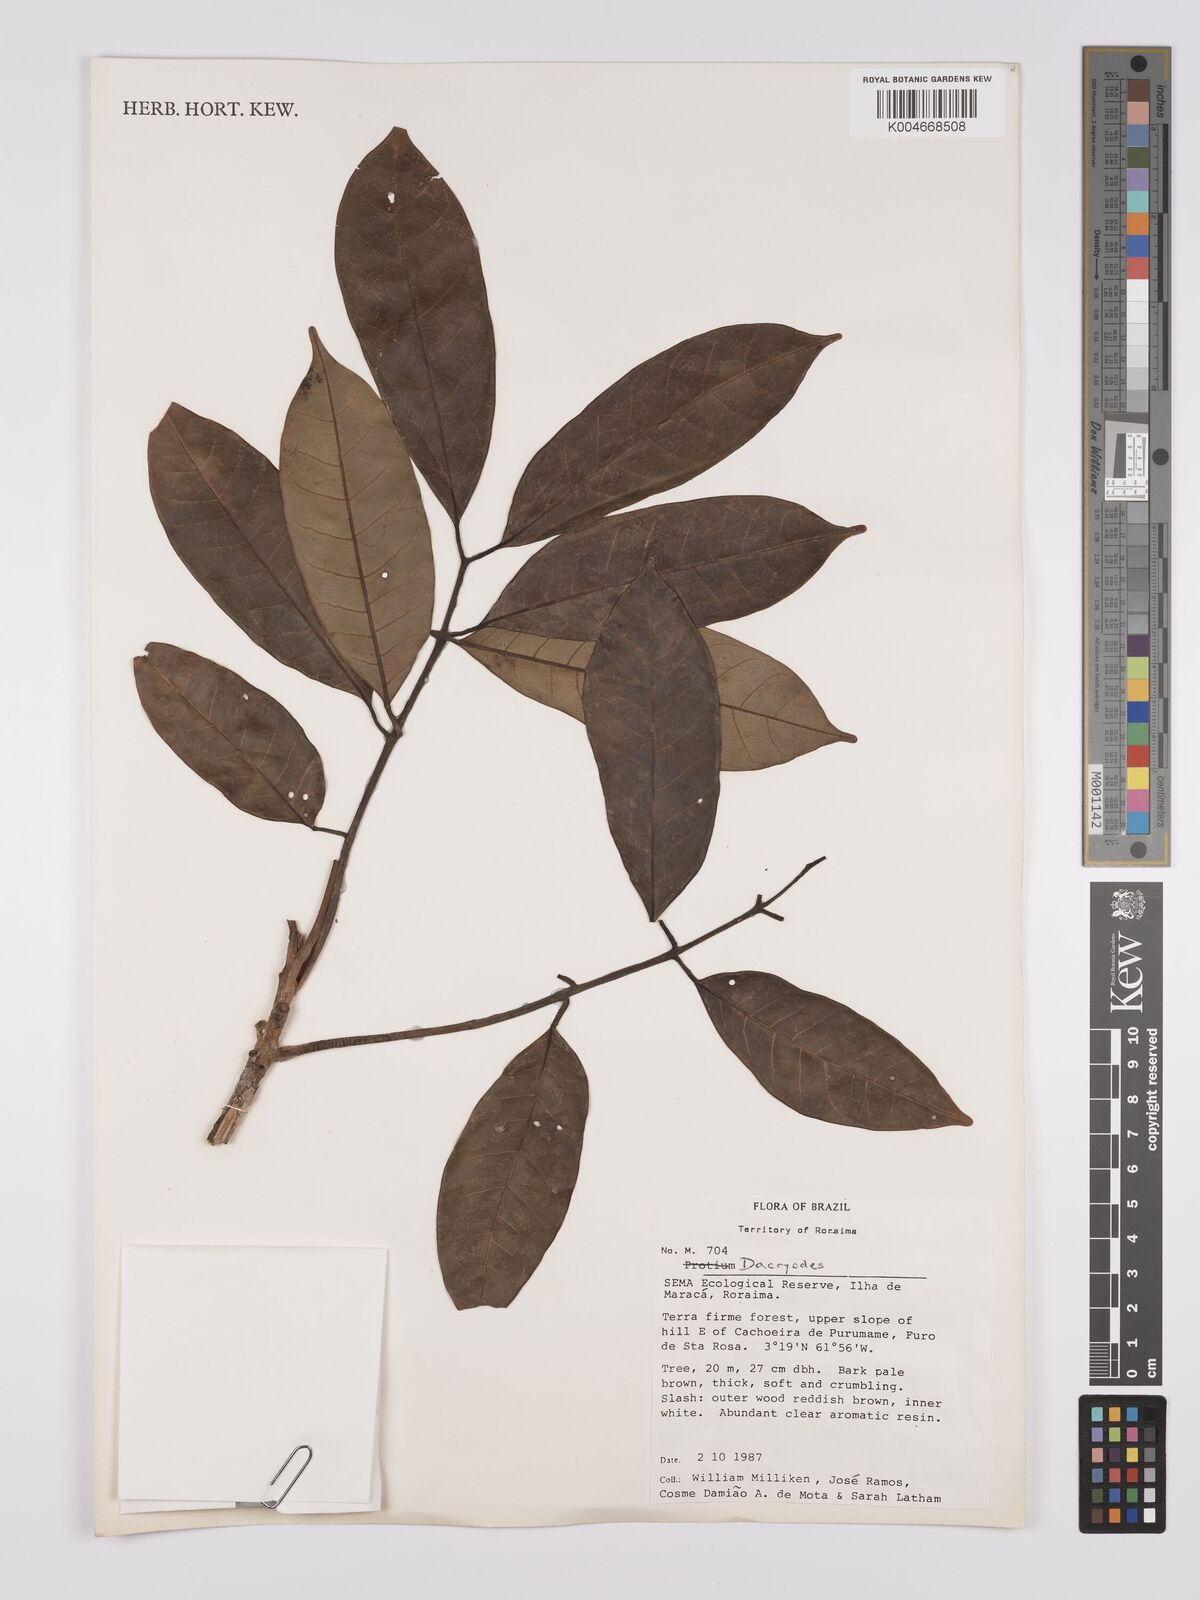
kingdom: Plantae
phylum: Tracheophyta
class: Magnoliopsida
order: Sapindales
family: Burseraceae
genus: Dacryodes
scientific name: Dacryodes
